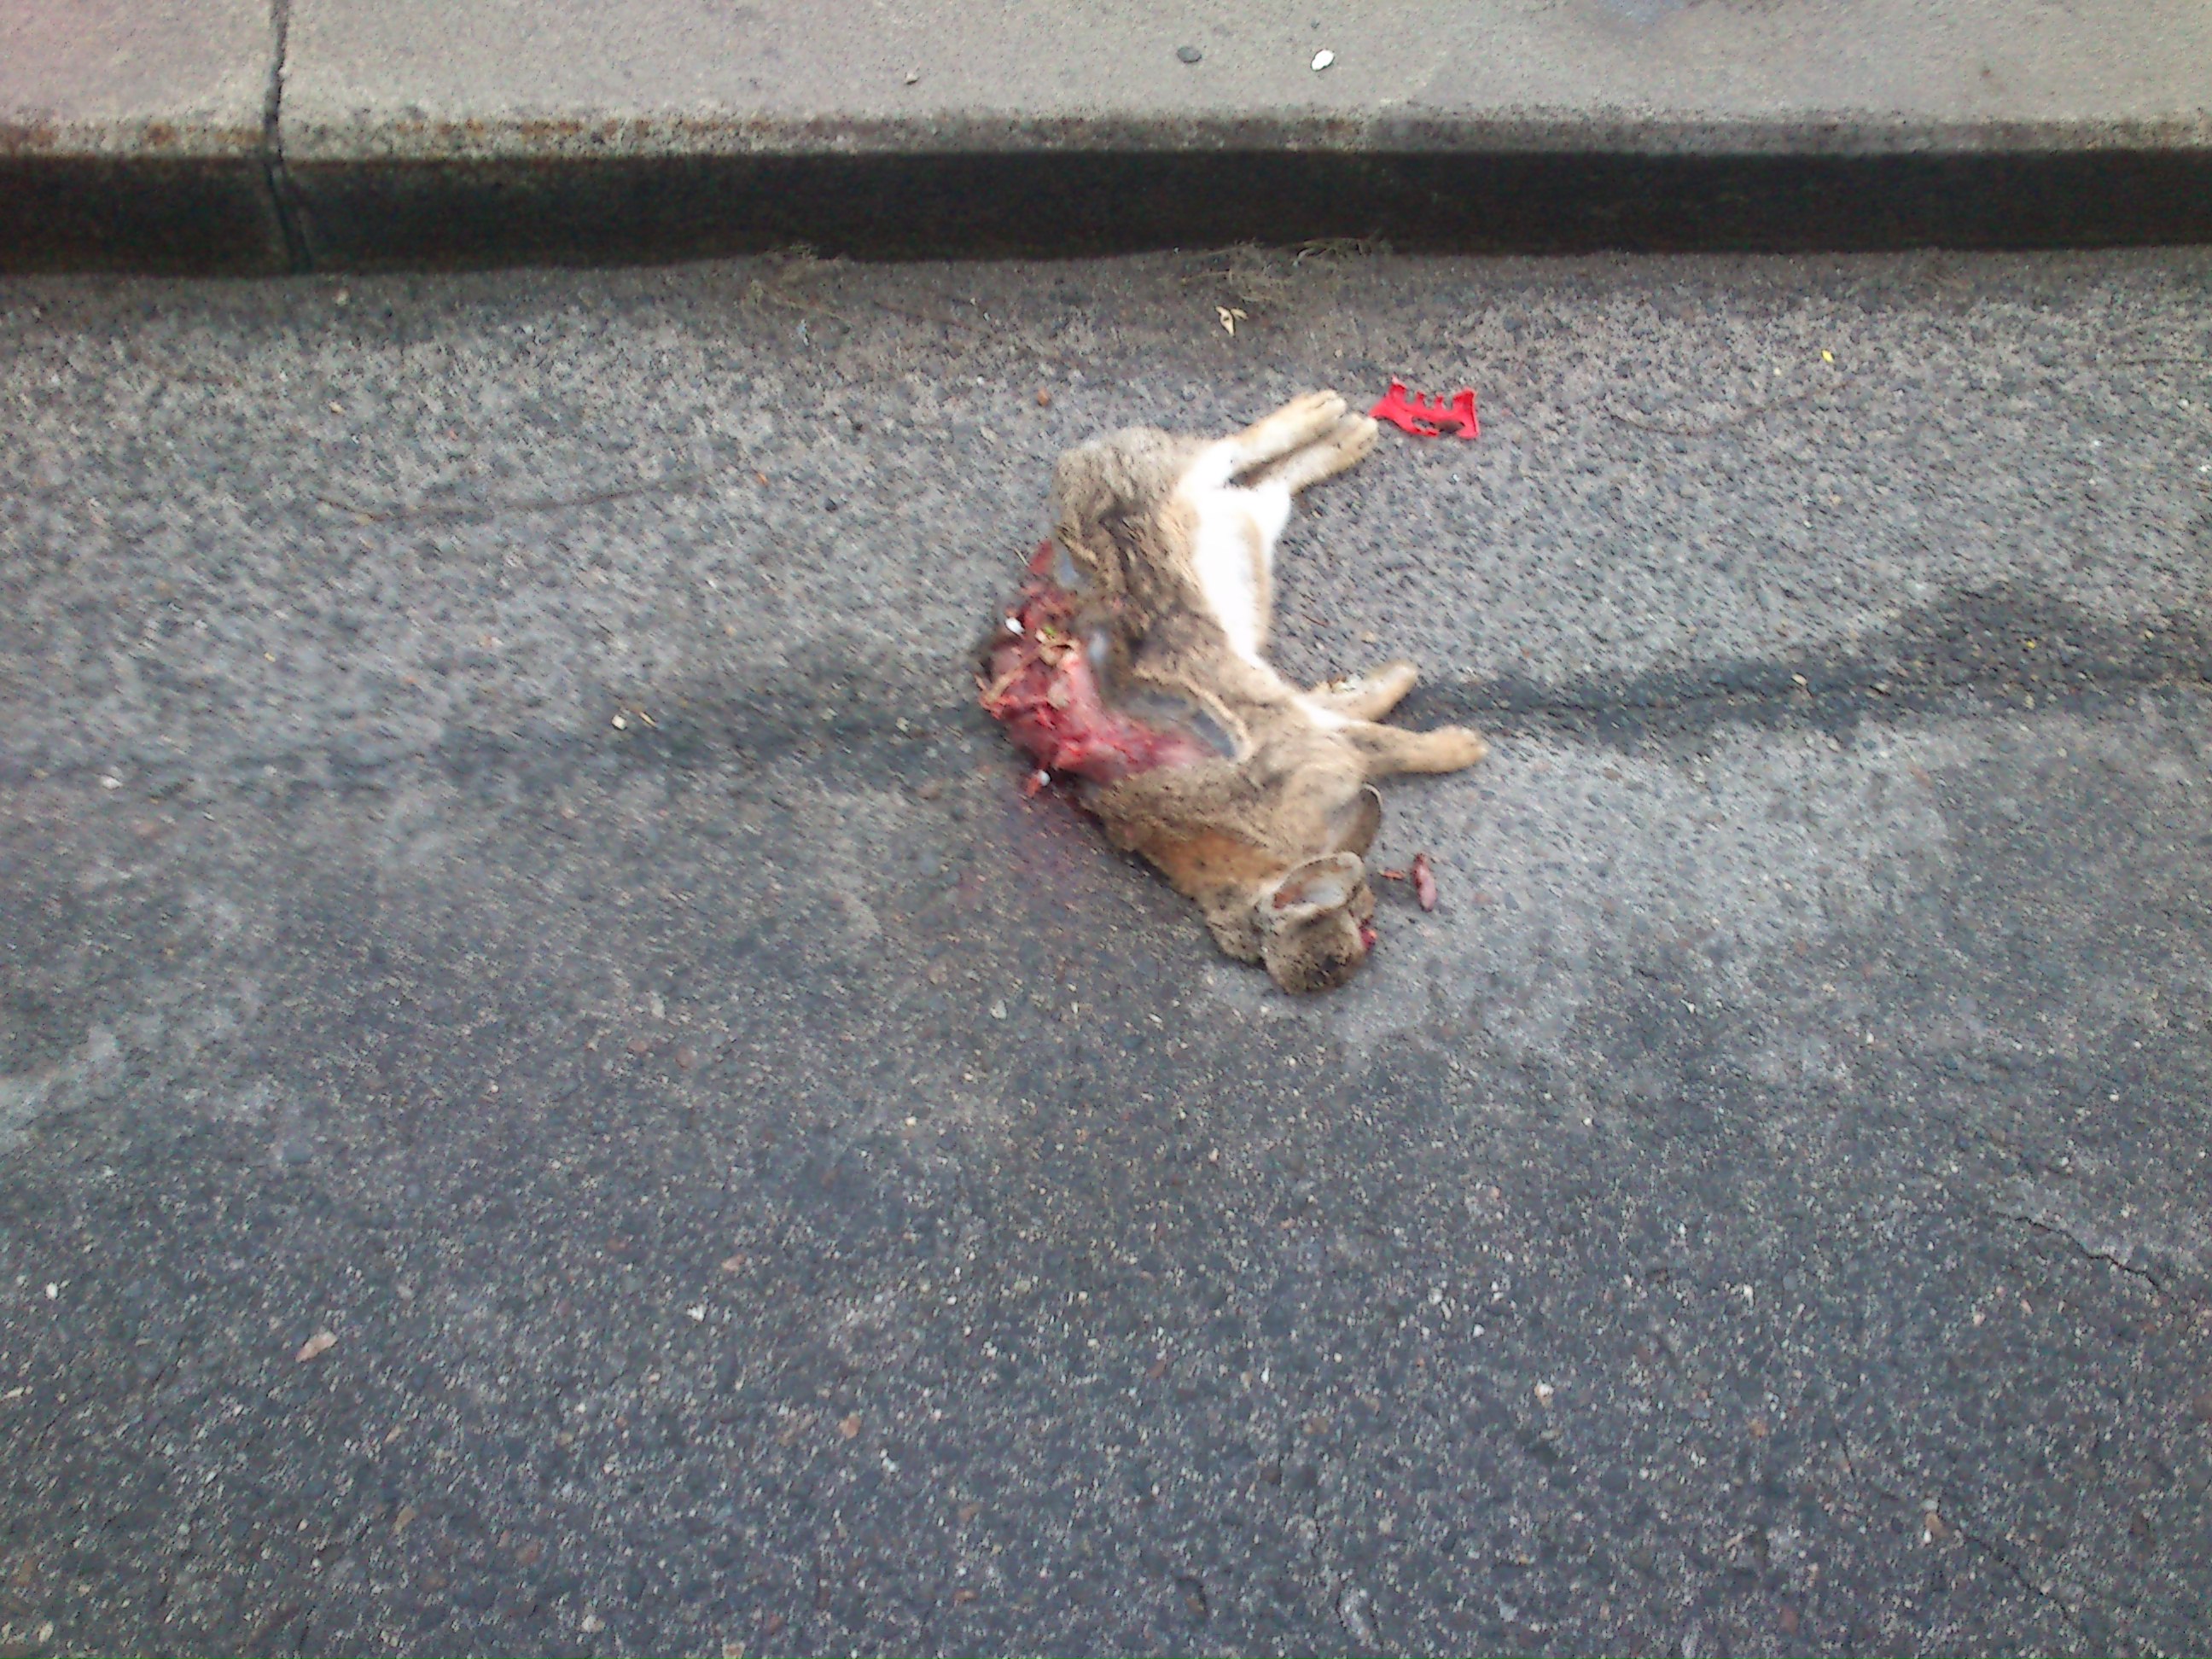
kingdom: Animalia
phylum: Chordata
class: Mammalia
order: Lagomorpha
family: Leporidae
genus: Oryctolagus
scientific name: Oryctolagus cuniculus
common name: European rabbit
